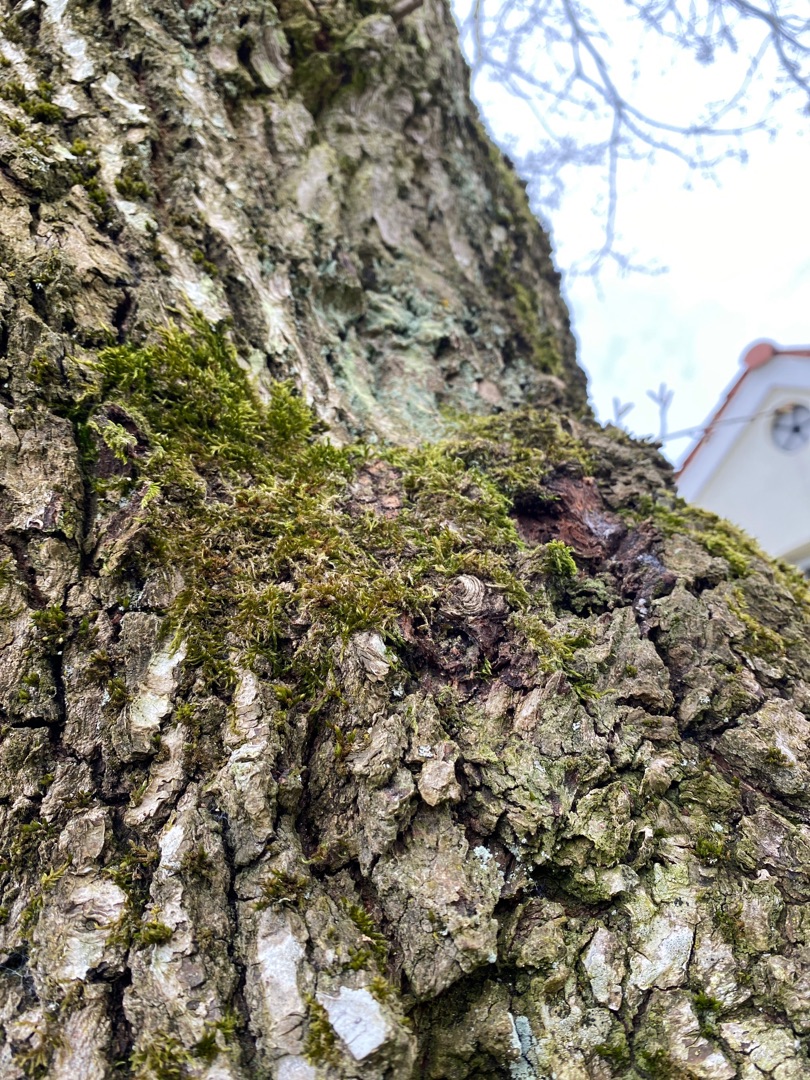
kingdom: Plantae
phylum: Bryophyta
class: Bryopsida
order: Hypnales
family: Hypnaceae
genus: Hypnum
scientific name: Hypnum
